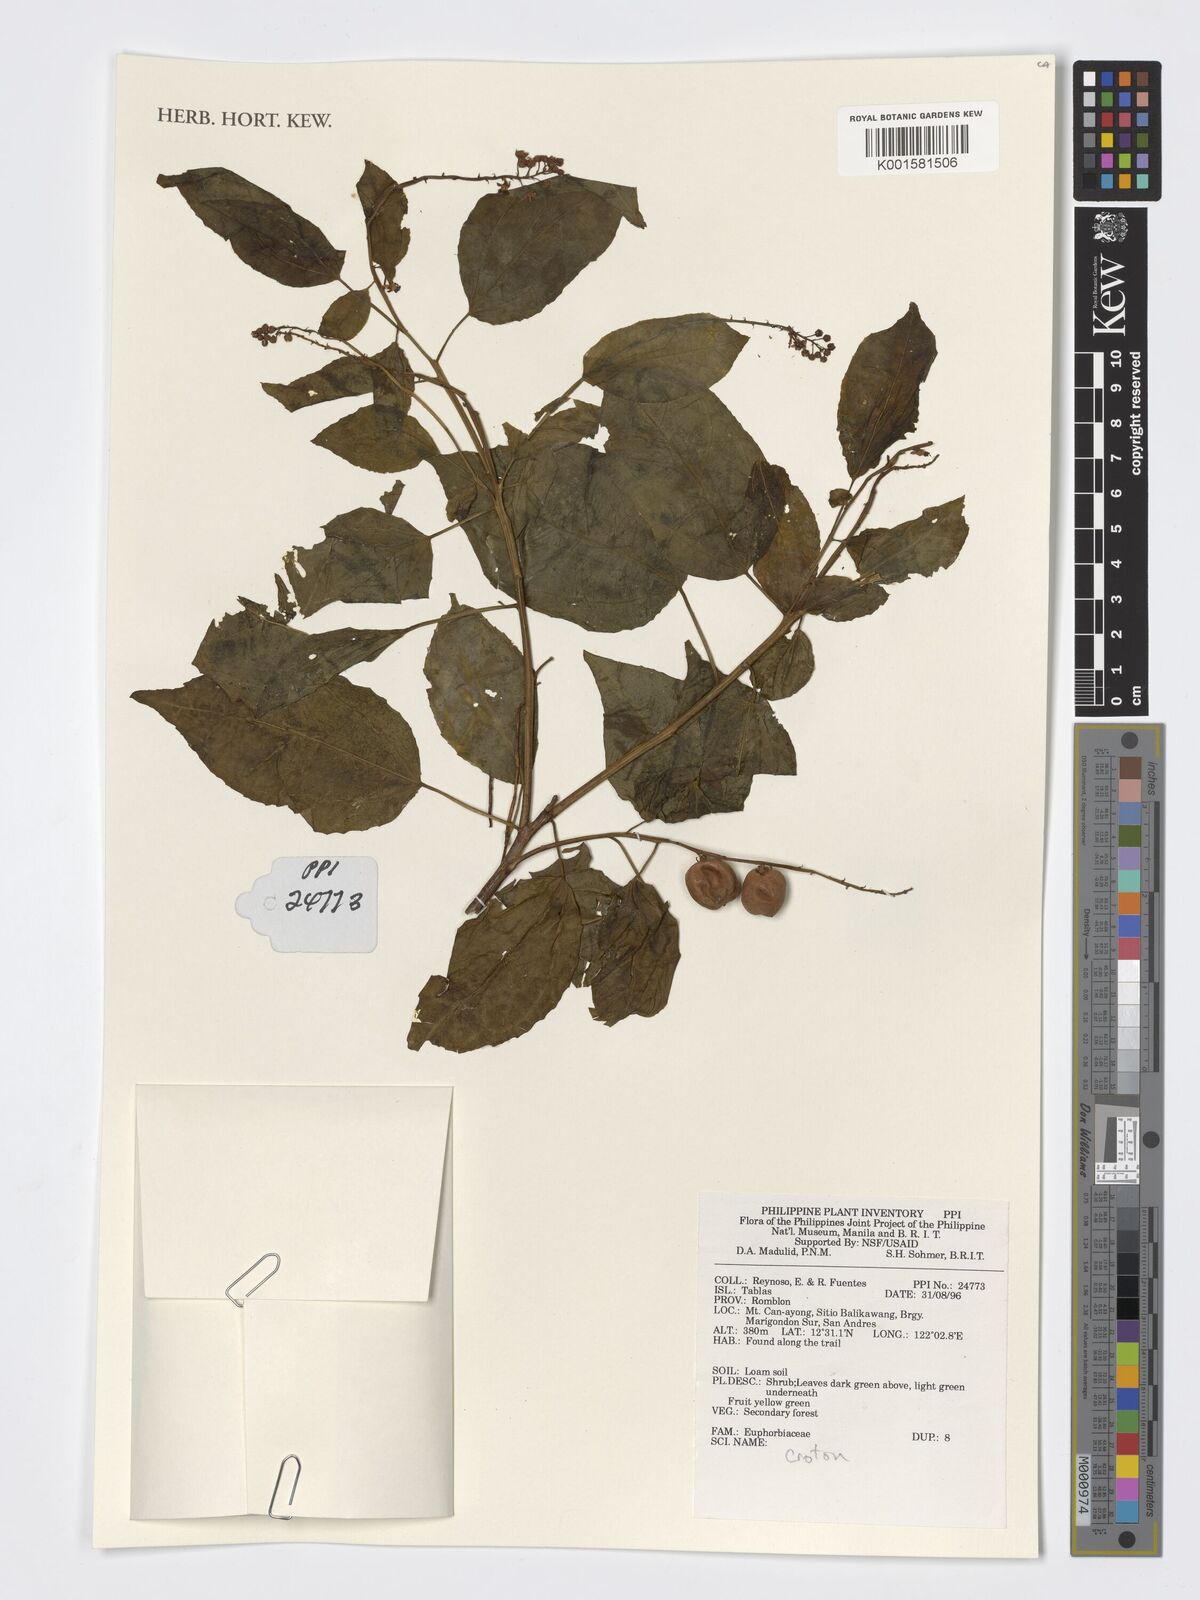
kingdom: Plantae
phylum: Tracheophyta
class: Magnoliopsida
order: Malpighiales
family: Euphorbiaceae
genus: Croton
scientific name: Croton
